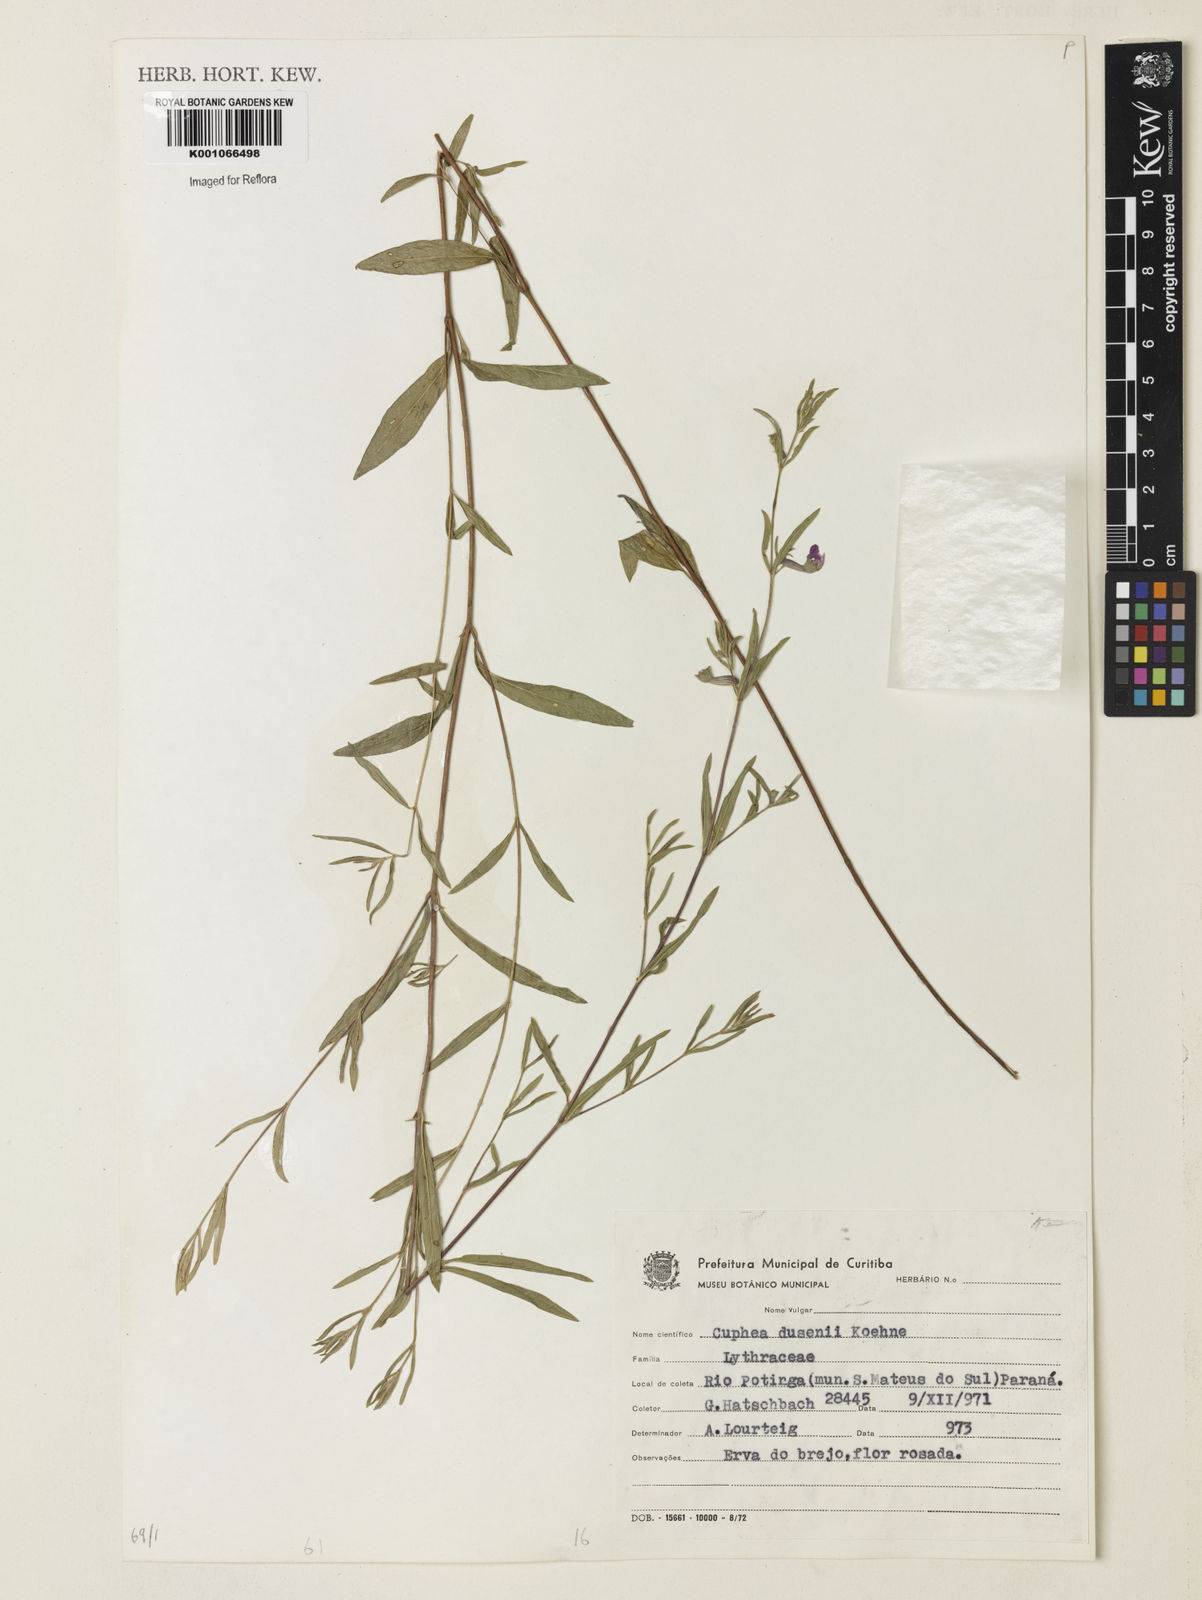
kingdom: Plantae
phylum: Tracheophyta
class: Magnoliopsida
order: Myrtales
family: Lythraceae
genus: Cuphea
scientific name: Cuphea dusenii
